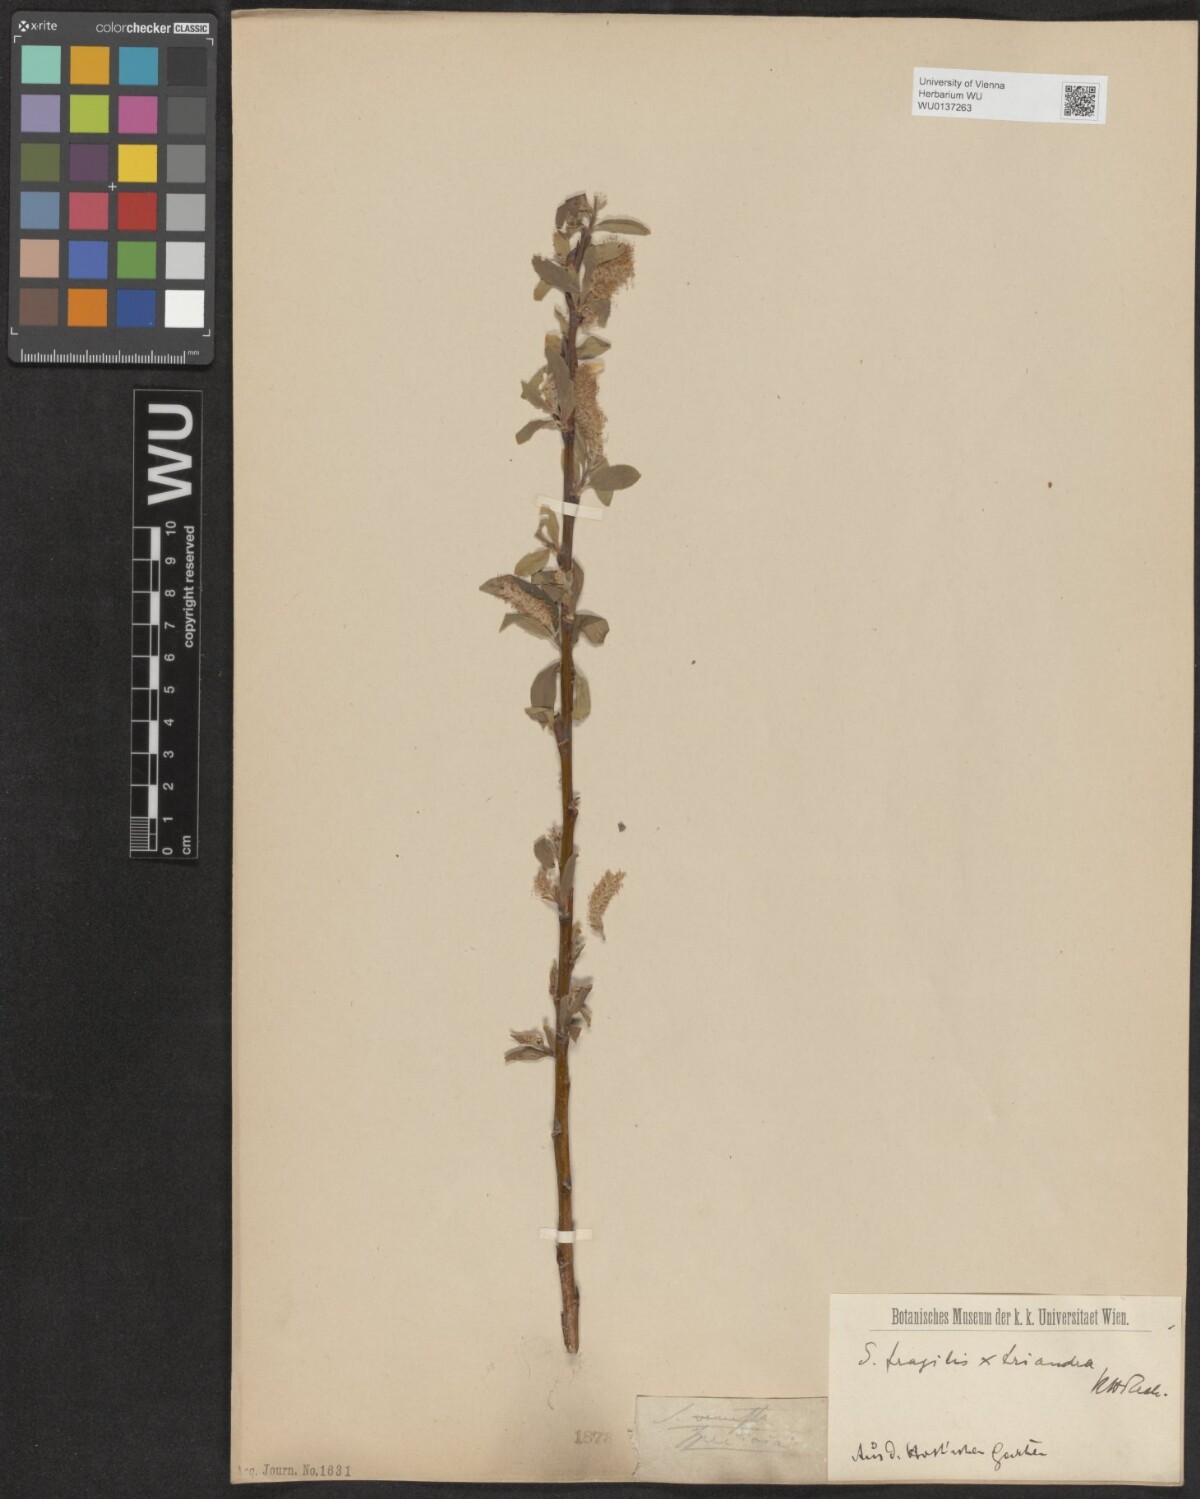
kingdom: Plantae
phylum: Tracheophyta
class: Magnoliopsida
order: Malpighiales
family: Salicaceae
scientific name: Salicaceae
